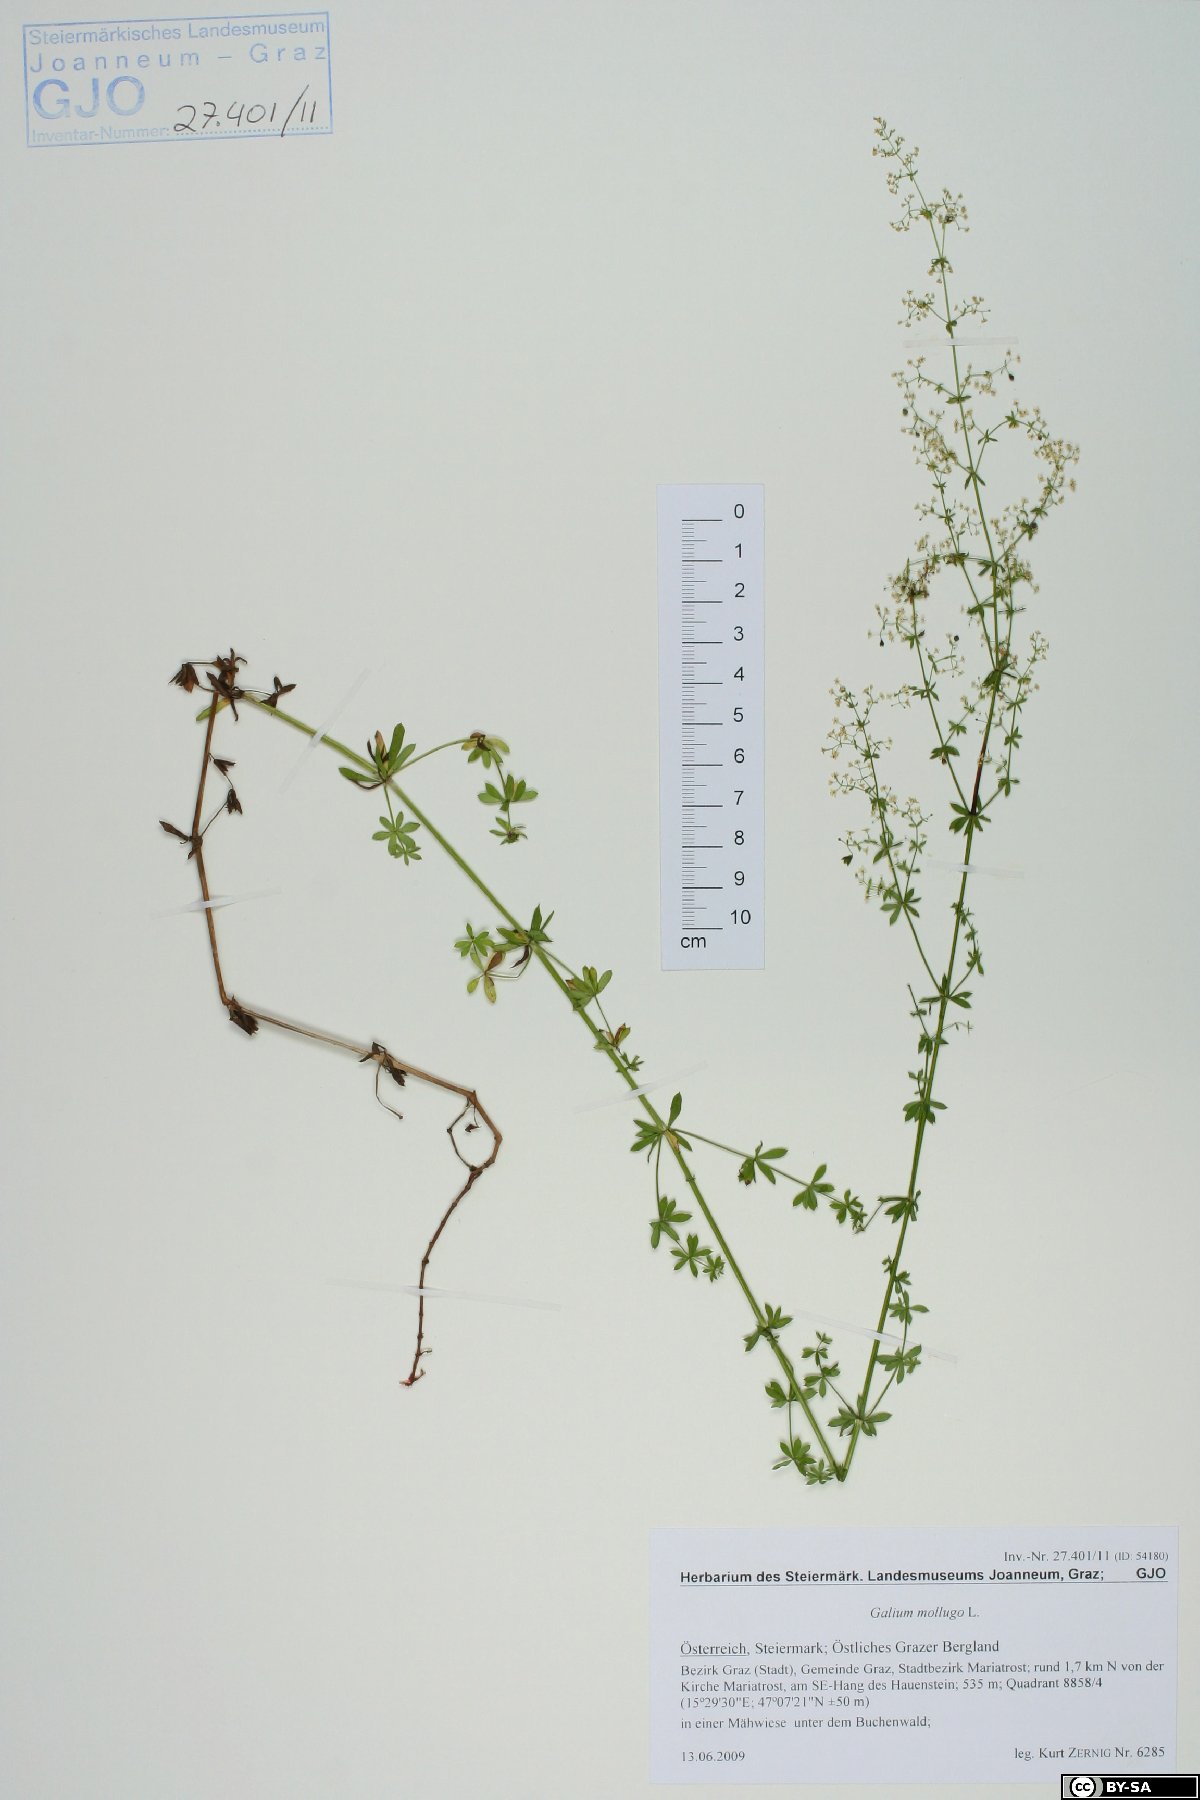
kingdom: Plantae
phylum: Tracheophyta
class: Magnoliopsida
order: Gentianales
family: Rubiaceae
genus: Galium
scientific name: Galium mollugo
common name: Hedge bedstraw
